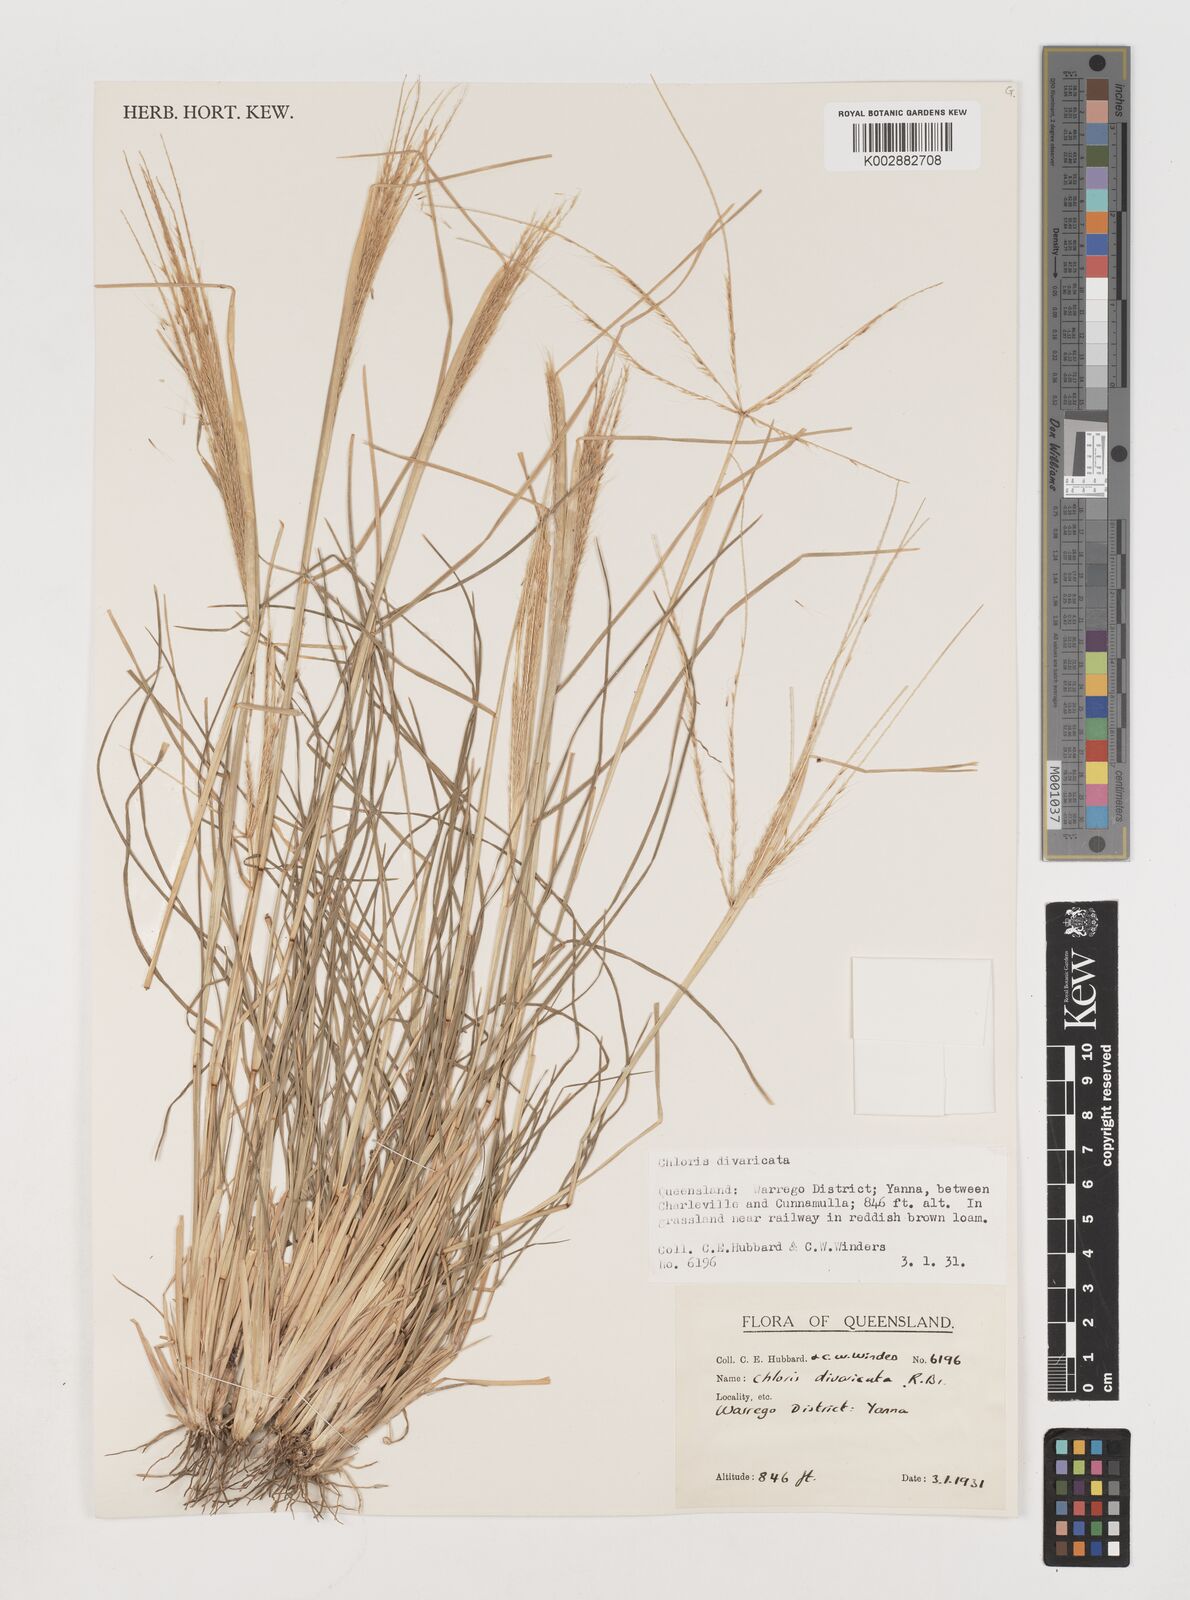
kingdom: Plantae
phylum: Tracheophyta
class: Liliopsida
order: Poales
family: Poaceae
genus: Chloris
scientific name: Chloris divaricata
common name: Spreading windmill grass
